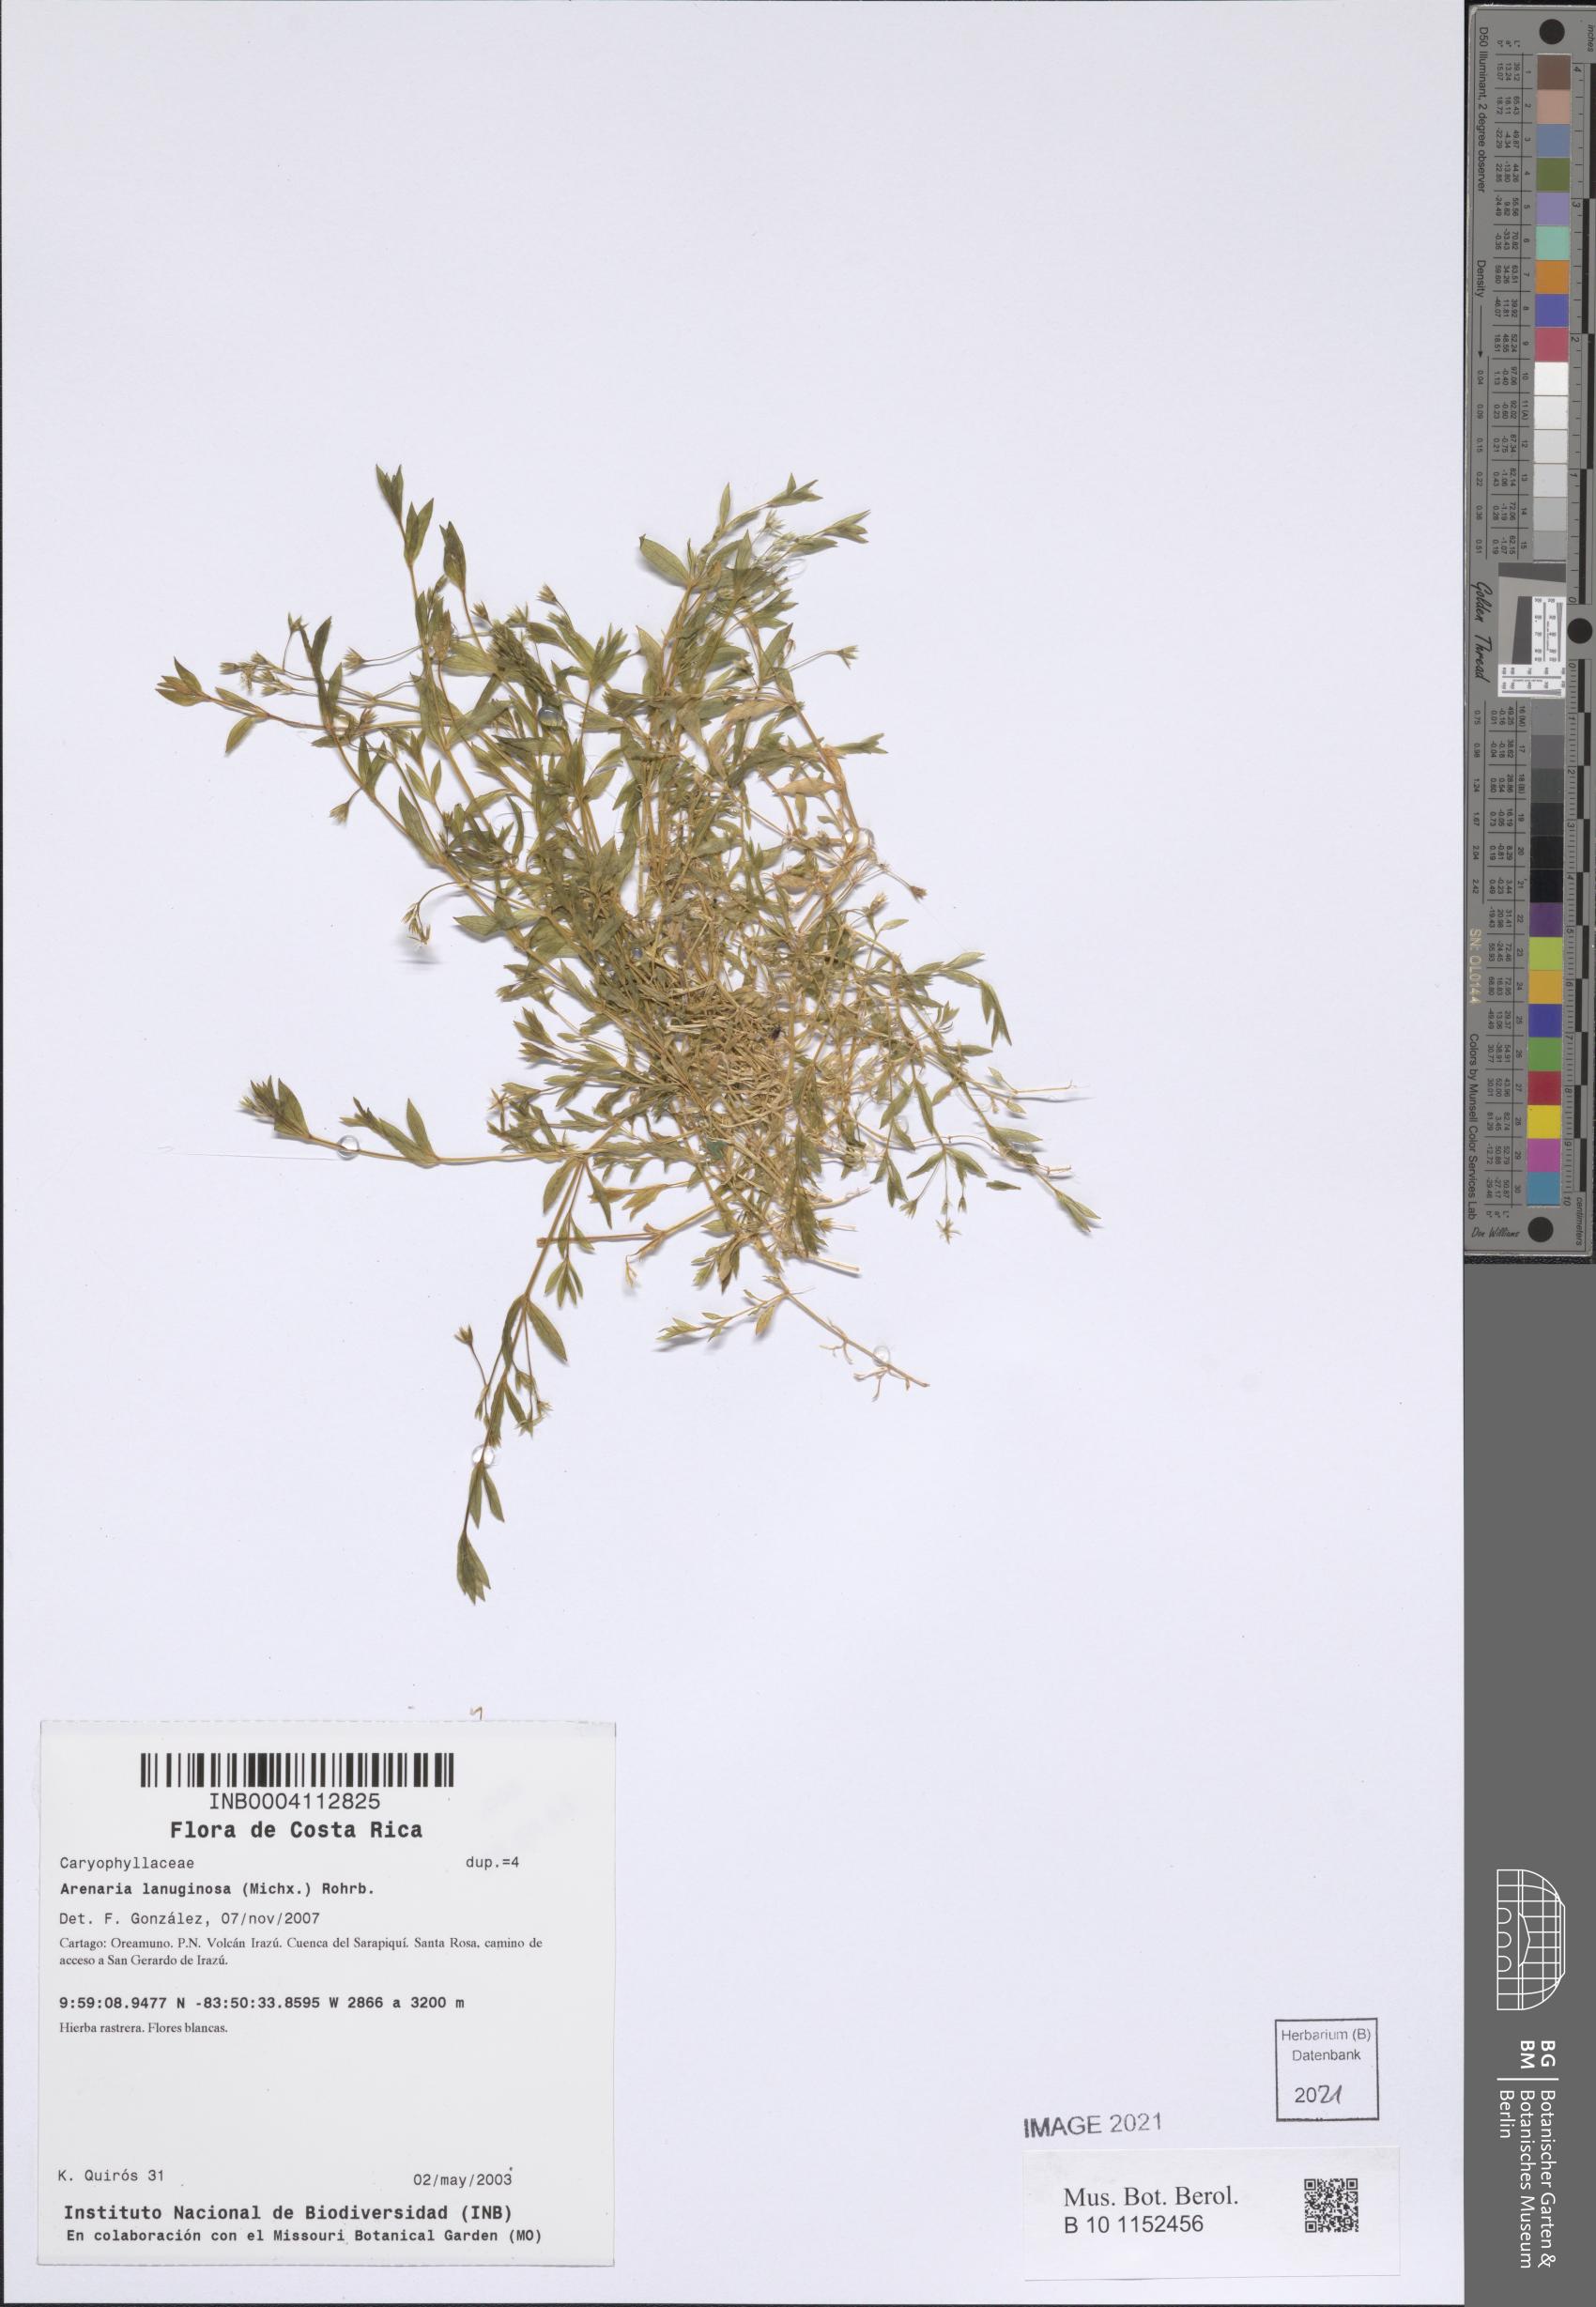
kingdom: Plantae
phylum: Tracheophyta
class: Magnoliopsida
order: Caryophyllales
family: Caryophyllaceae
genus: Stellaria
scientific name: Stellaria nubigena
